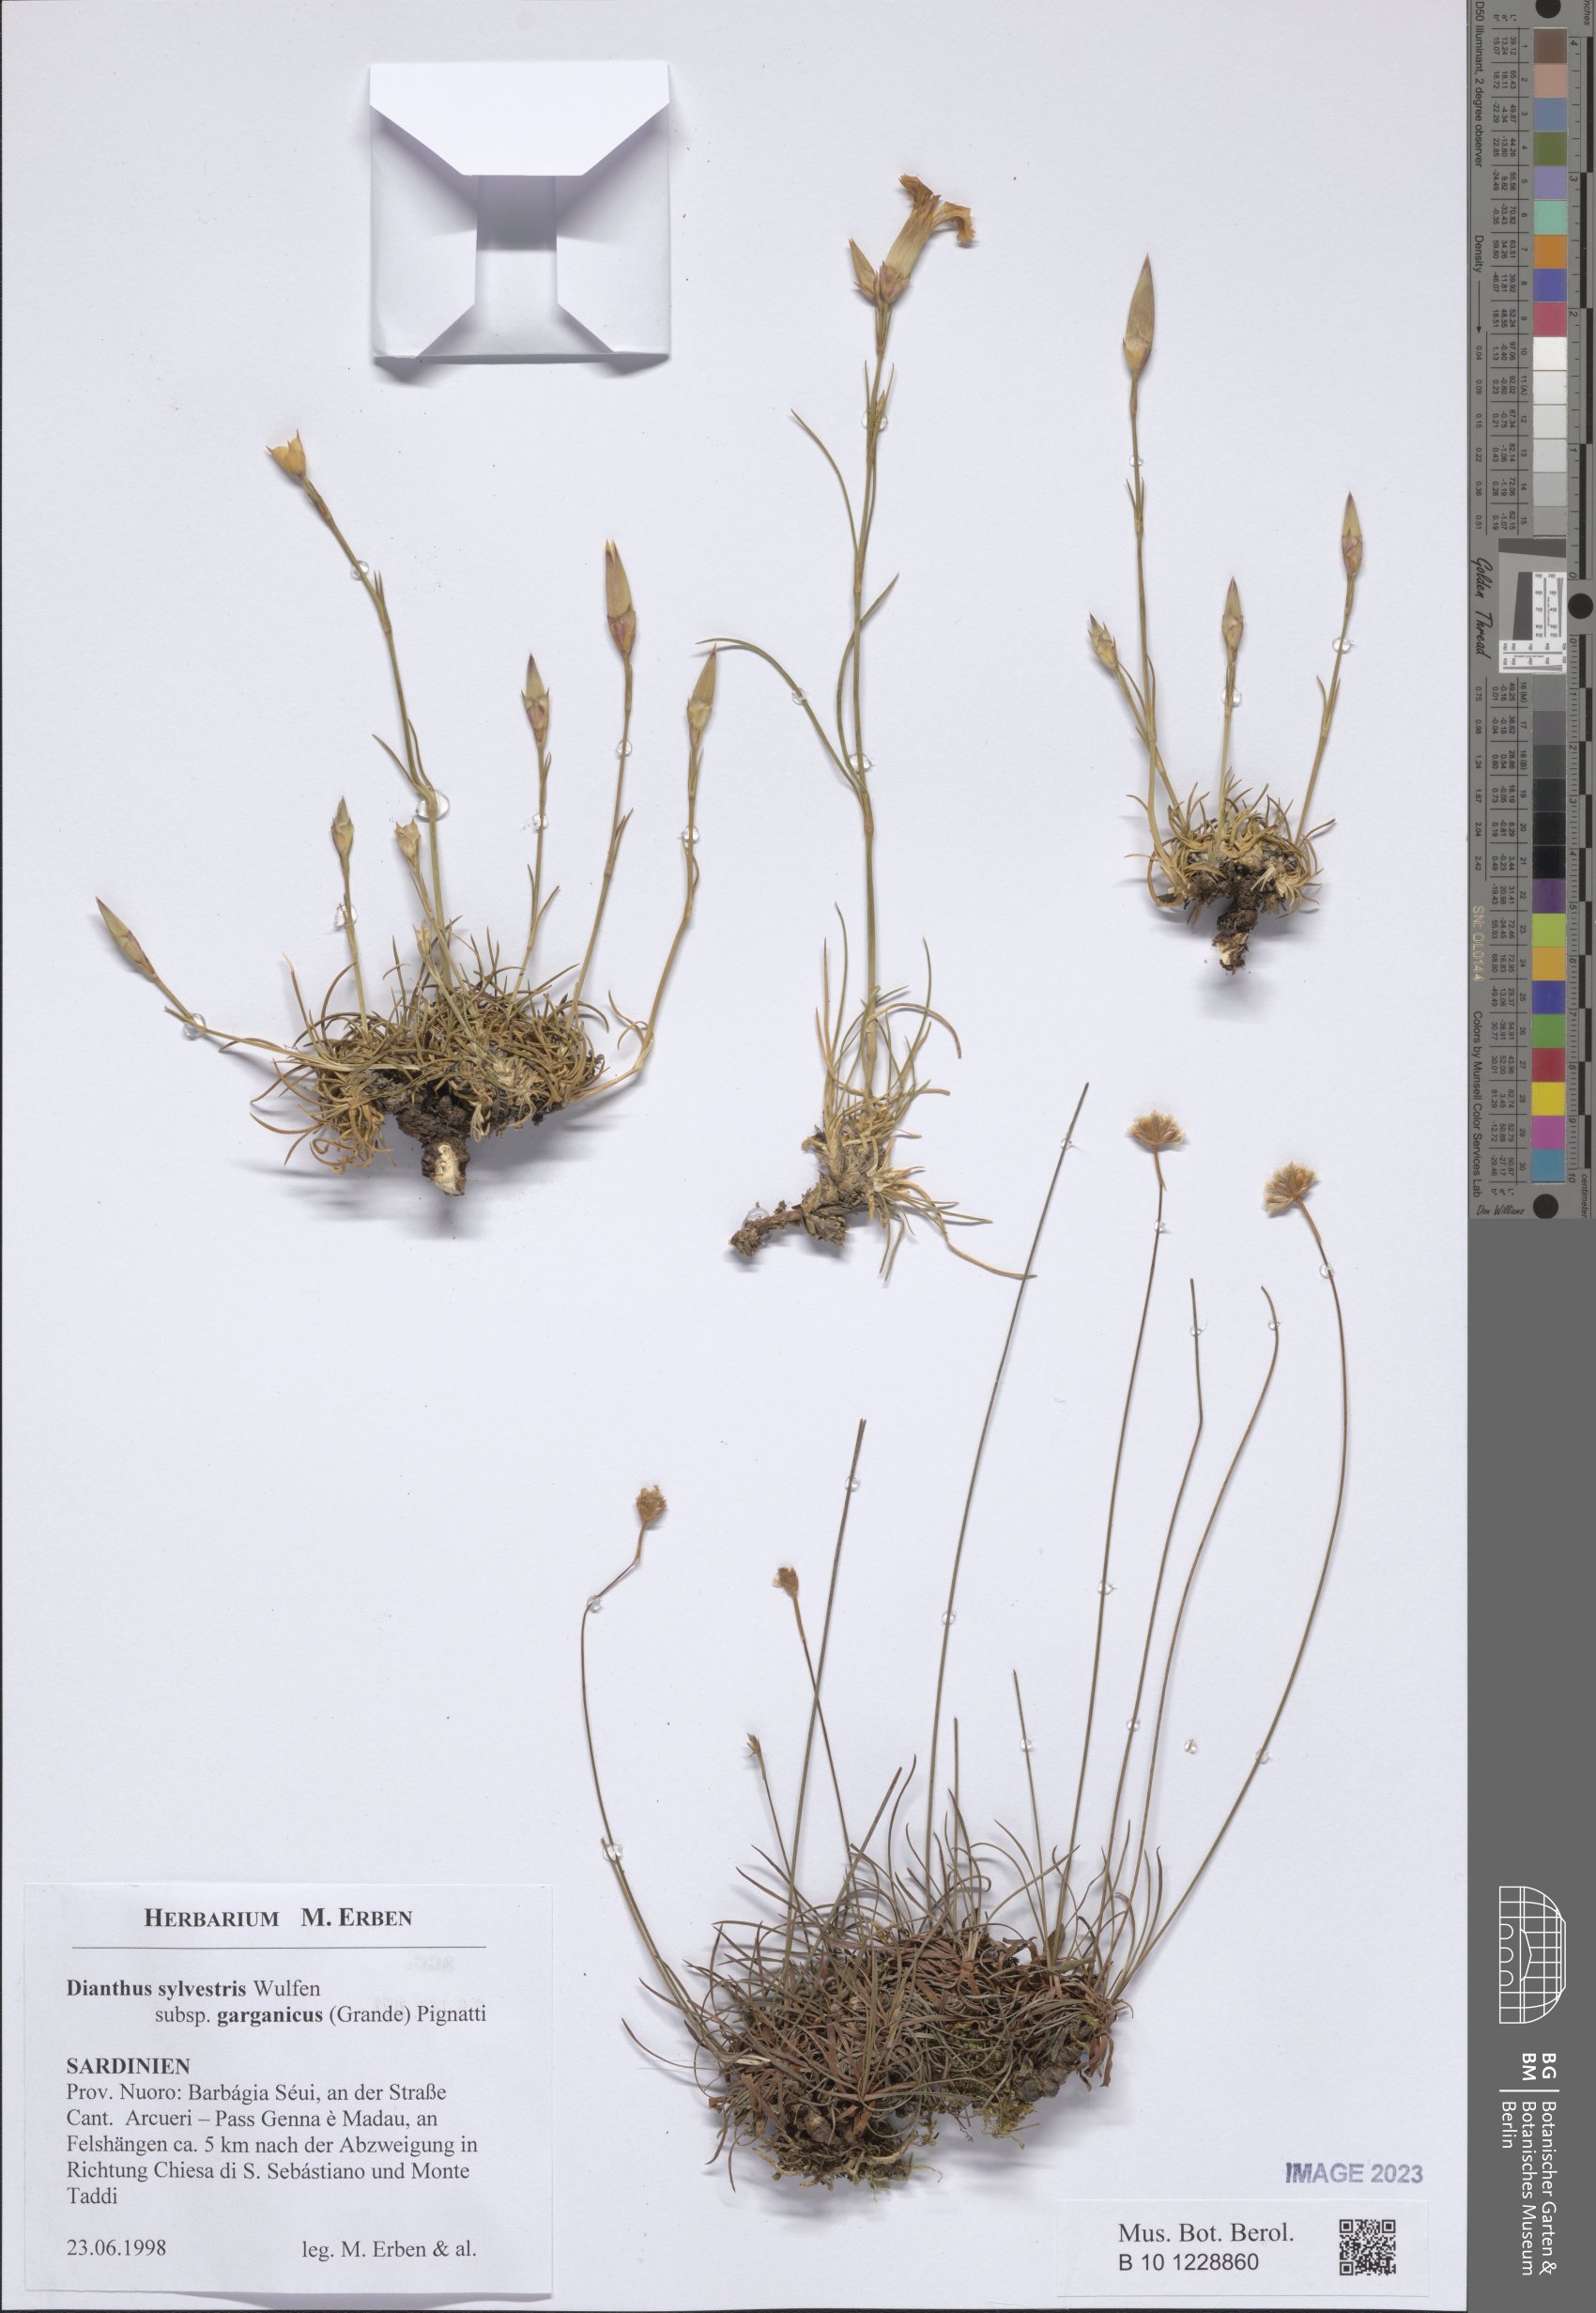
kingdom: Plantae
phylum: Tracheophyta
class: Magnoliopsida
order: Caryophyllales
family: Caryophyllaceae
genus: Dianthus
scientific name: Dianthus tarentinus
